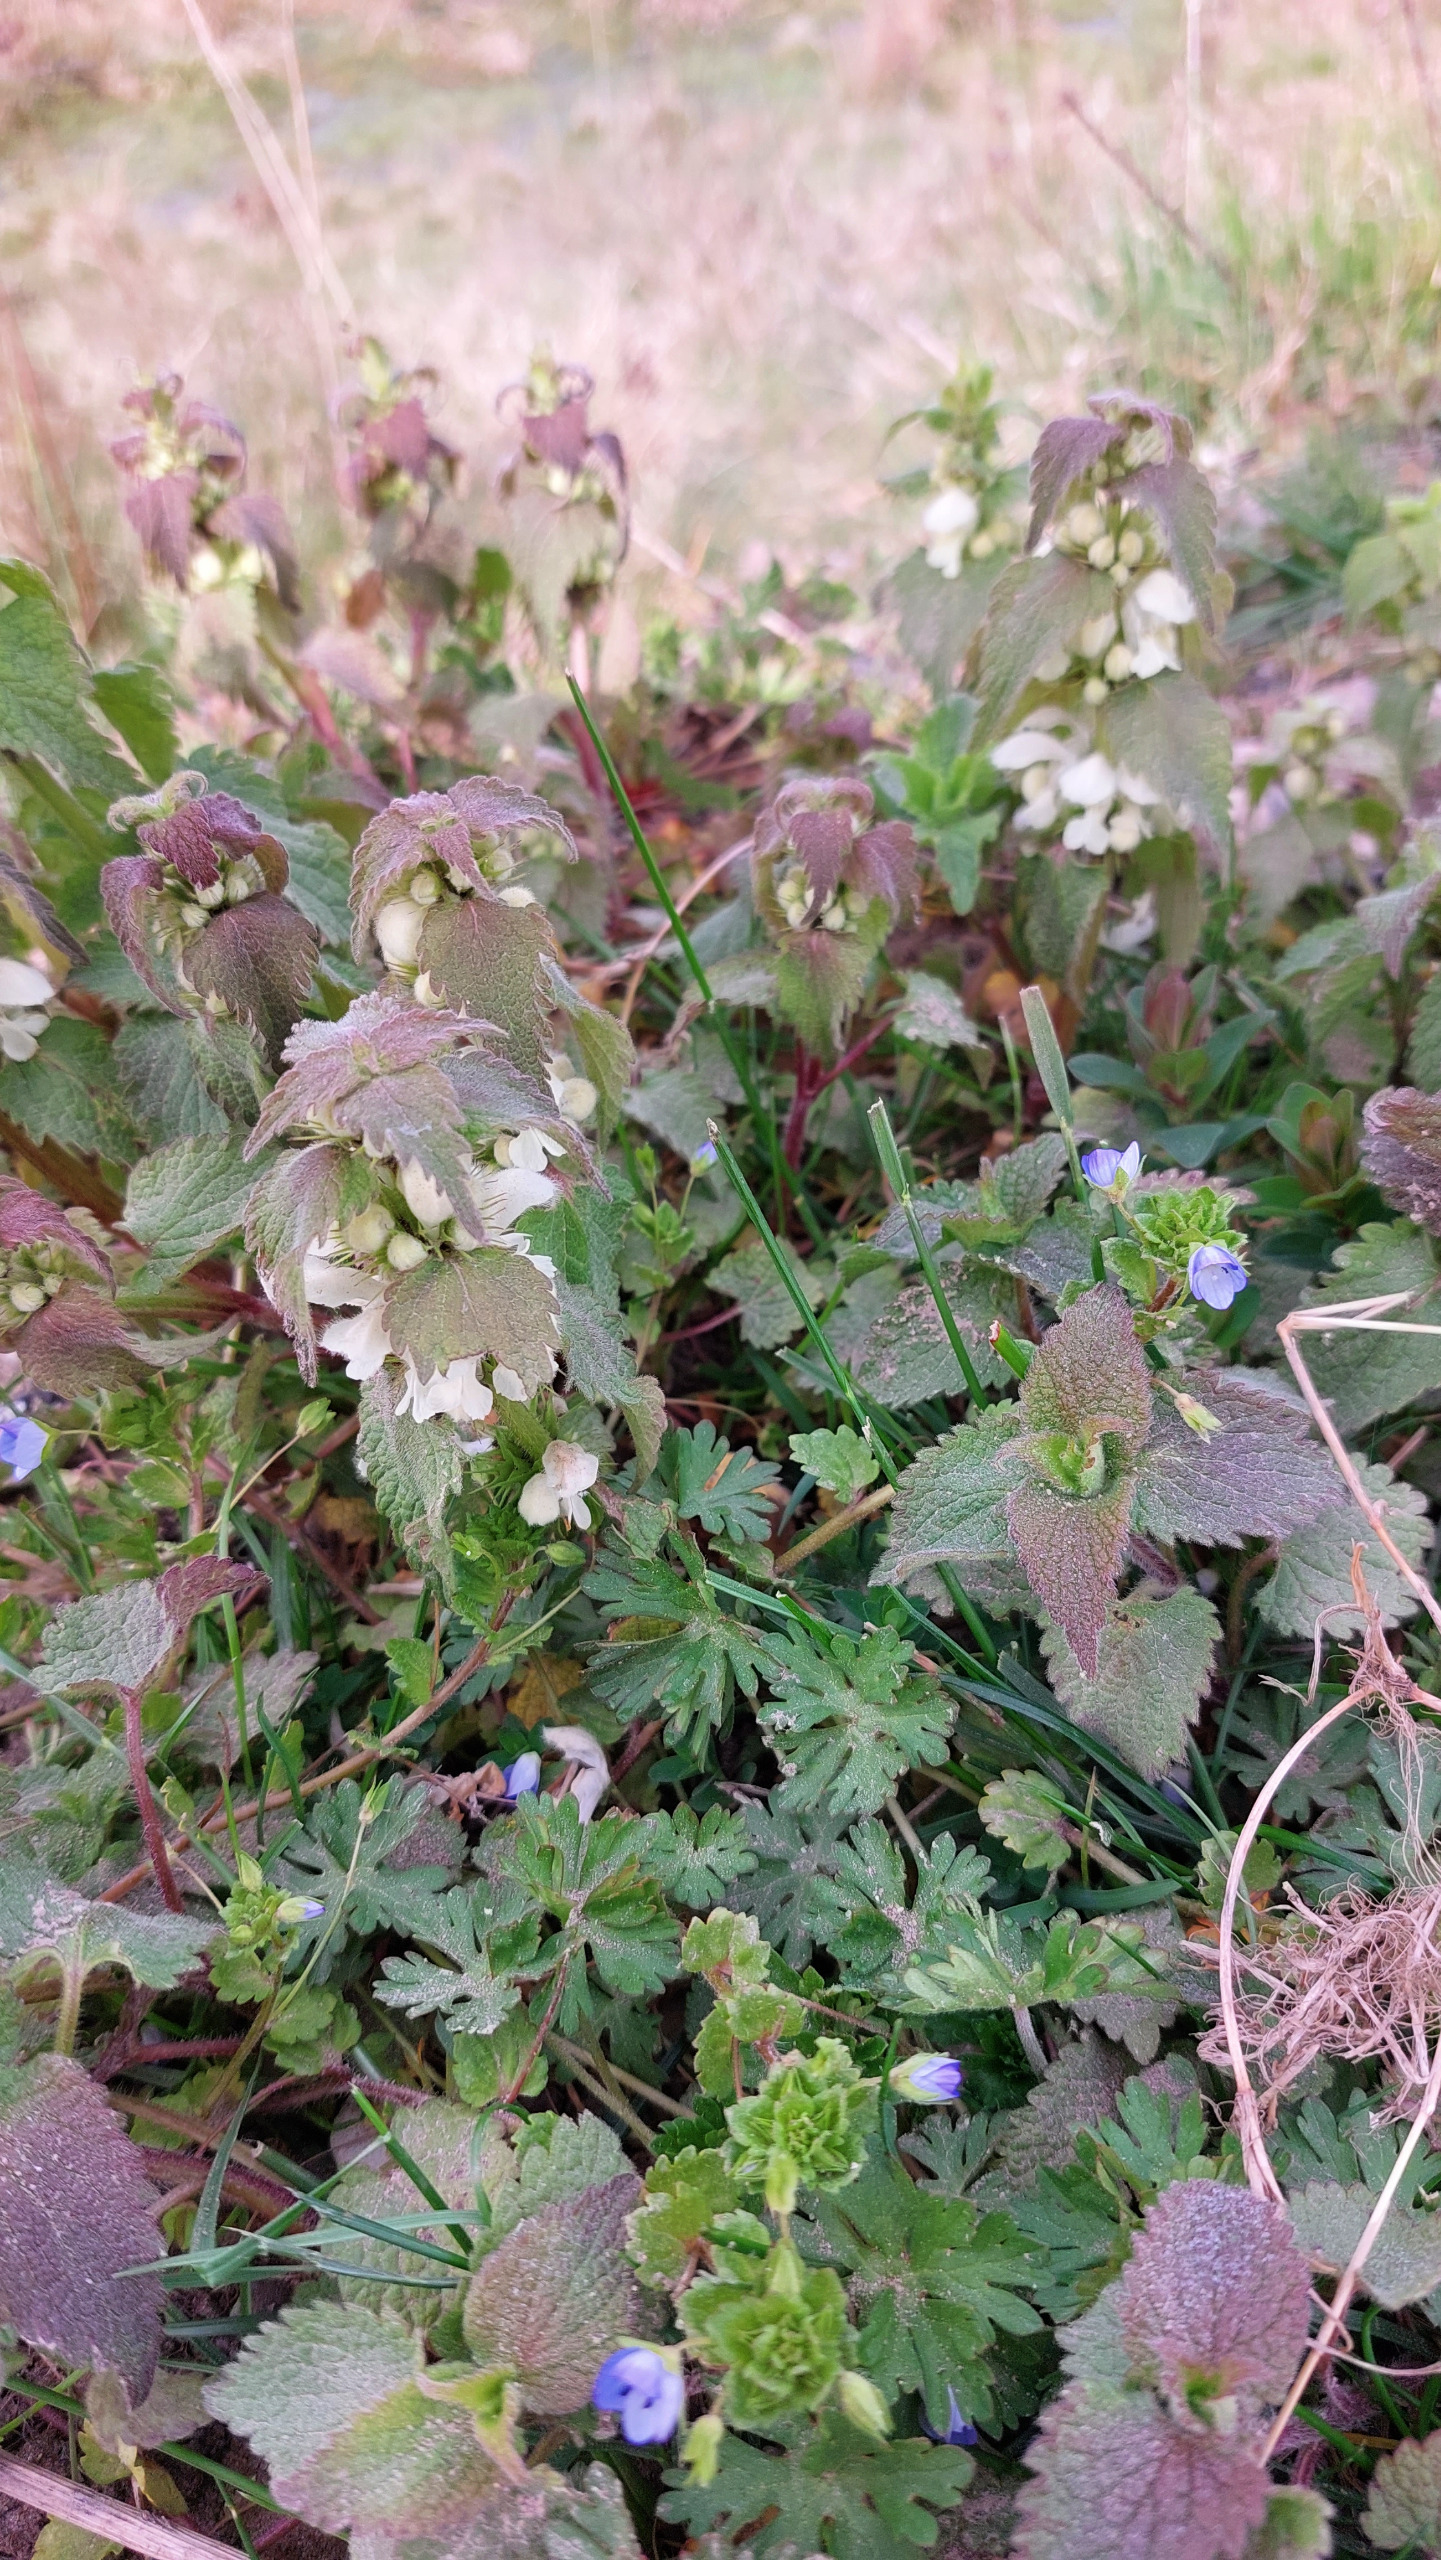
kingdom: Plantae
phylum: Tracheophyta
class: Magnoliopsida
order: Lamiales
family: Lamiaceae
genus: Lamium
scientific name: Lamium album
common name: Døvnælde
